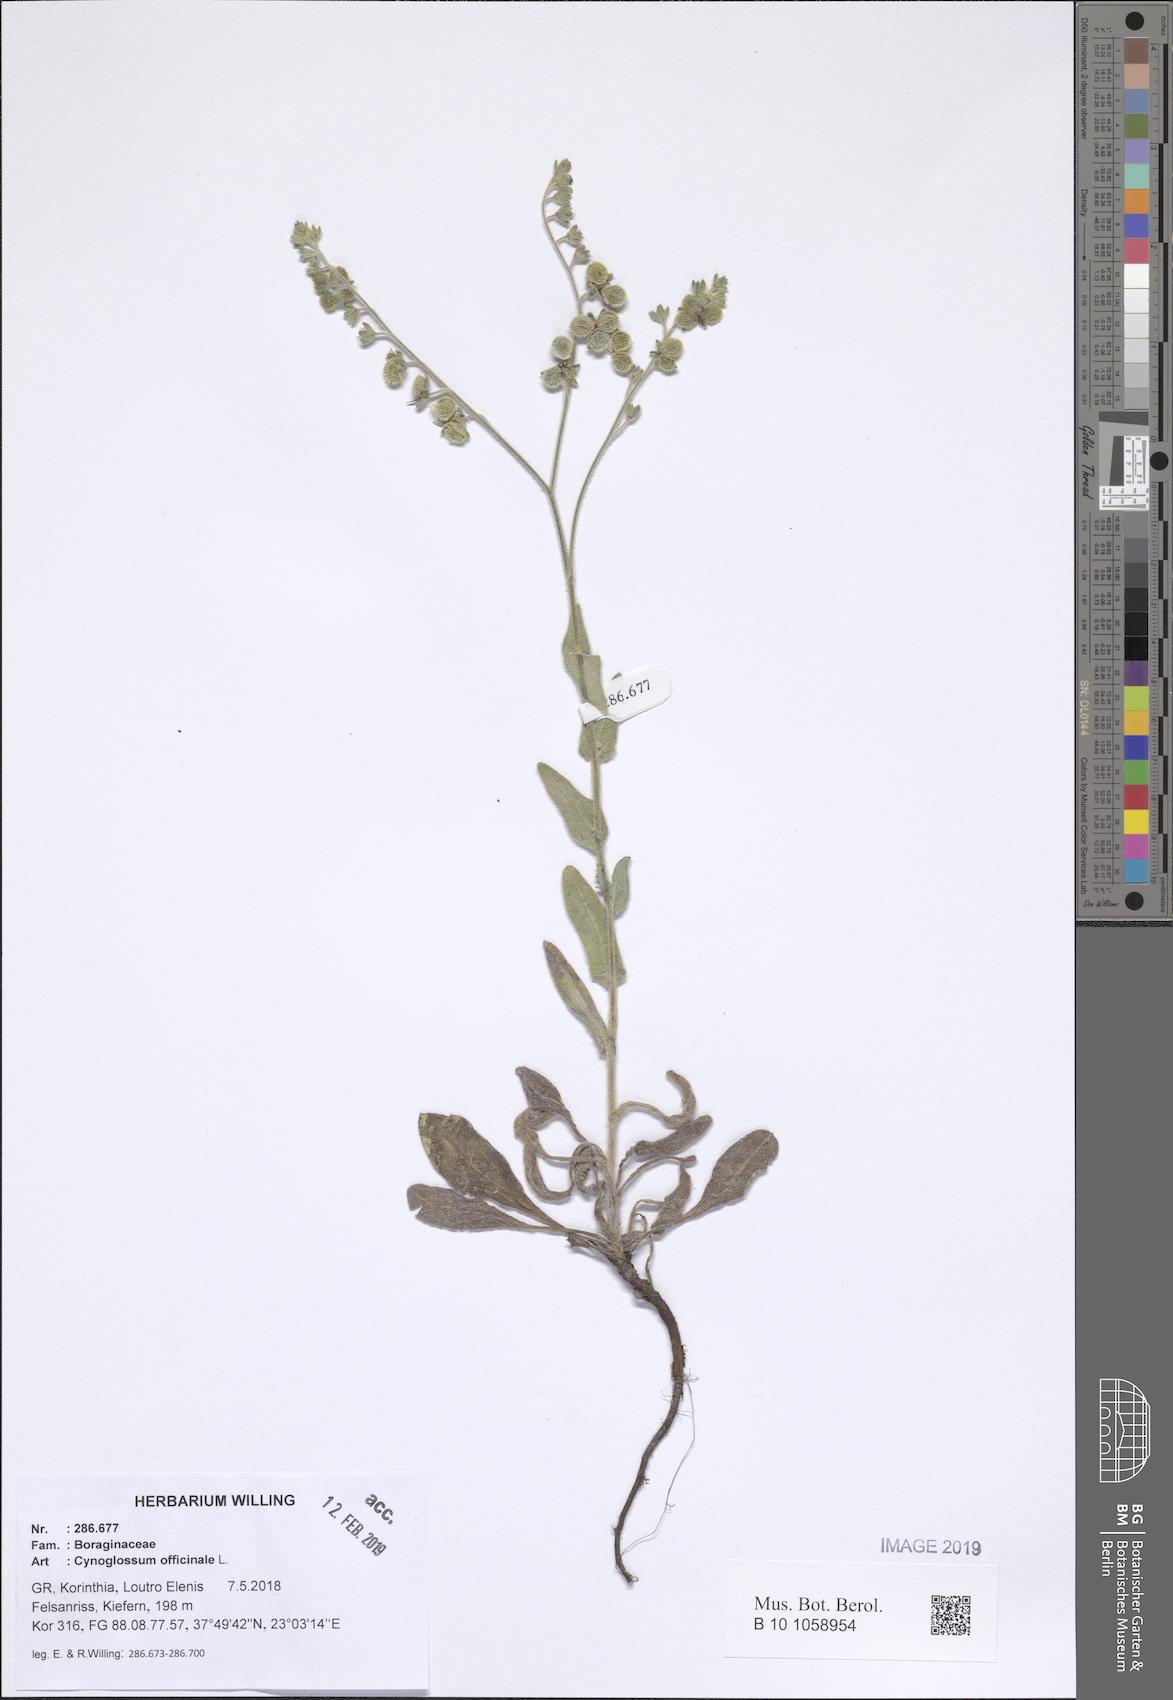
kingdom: Plantae
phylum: Tracheophyta
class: Magnoliopsida
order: Boraginales
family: Boraginaceae
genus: Rindera
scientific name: Rindera columnae
